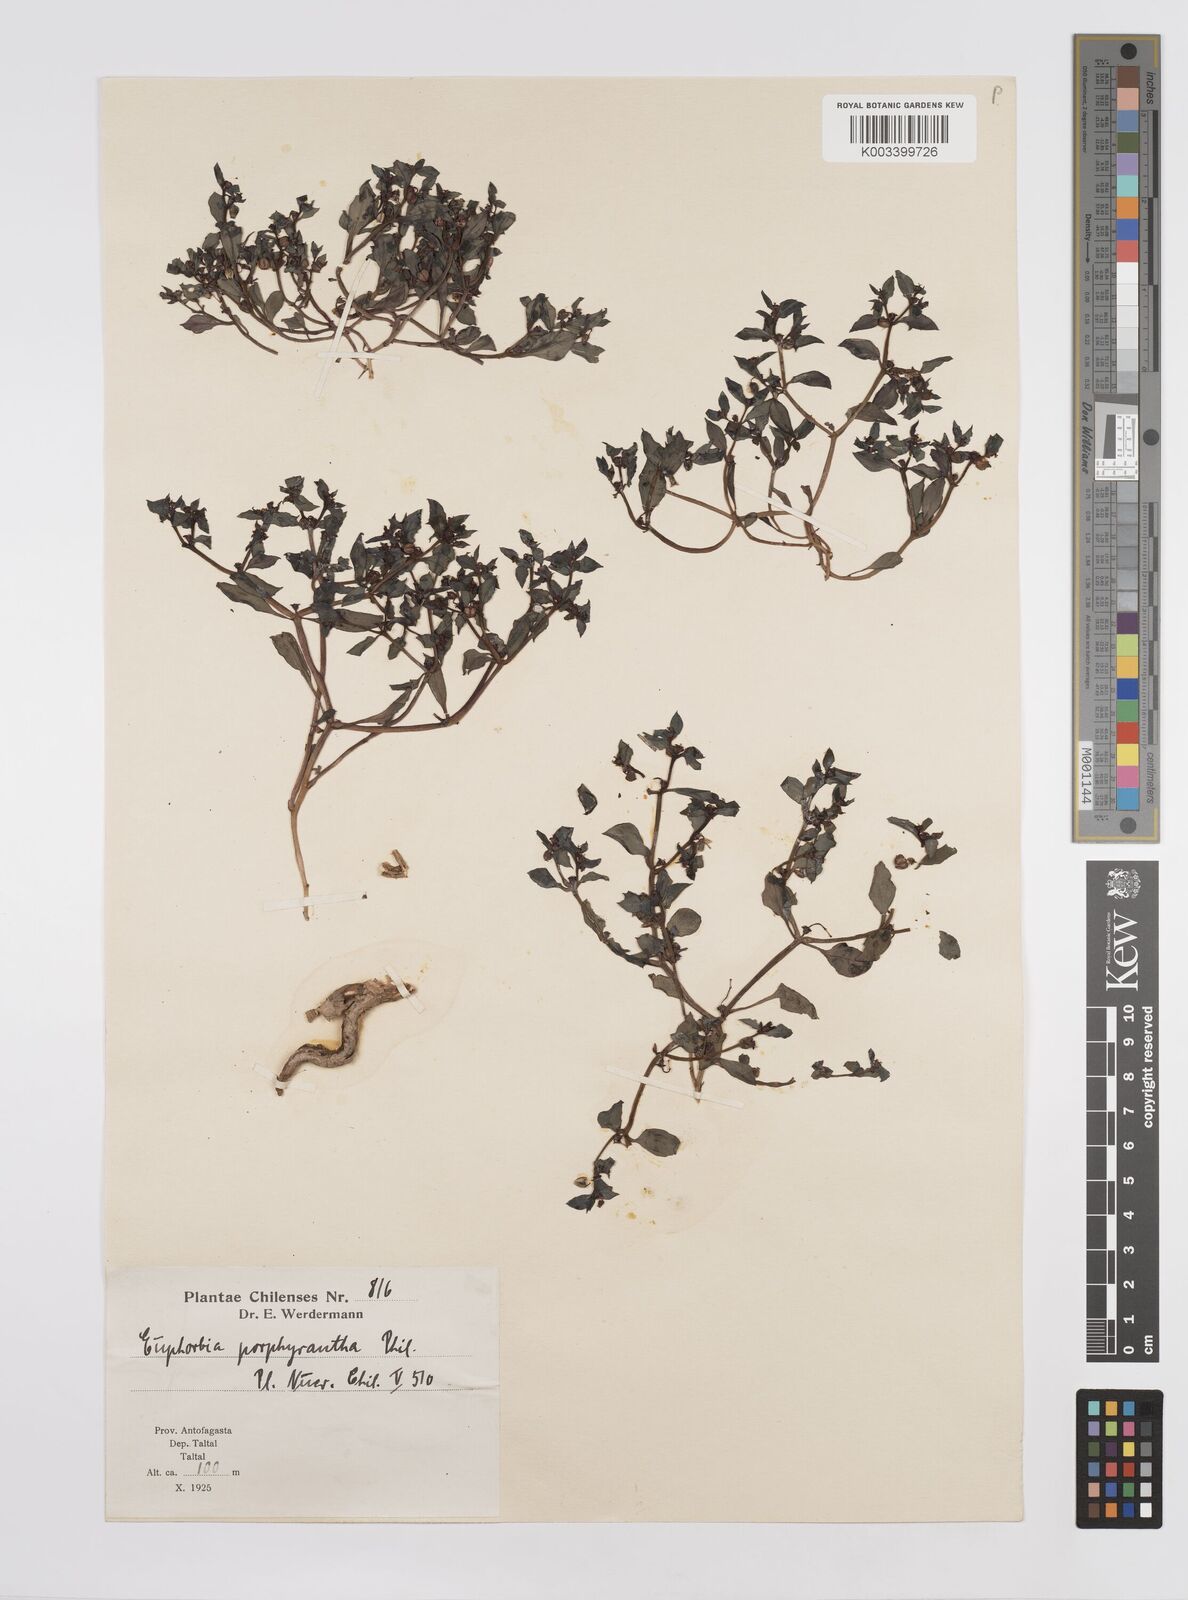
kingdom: Plantae
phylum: Tracheophyta
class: Magnoliopsida
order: Malpighiales
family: Euphorbiaceae
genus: Euphorbia
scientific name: Euphorbia
